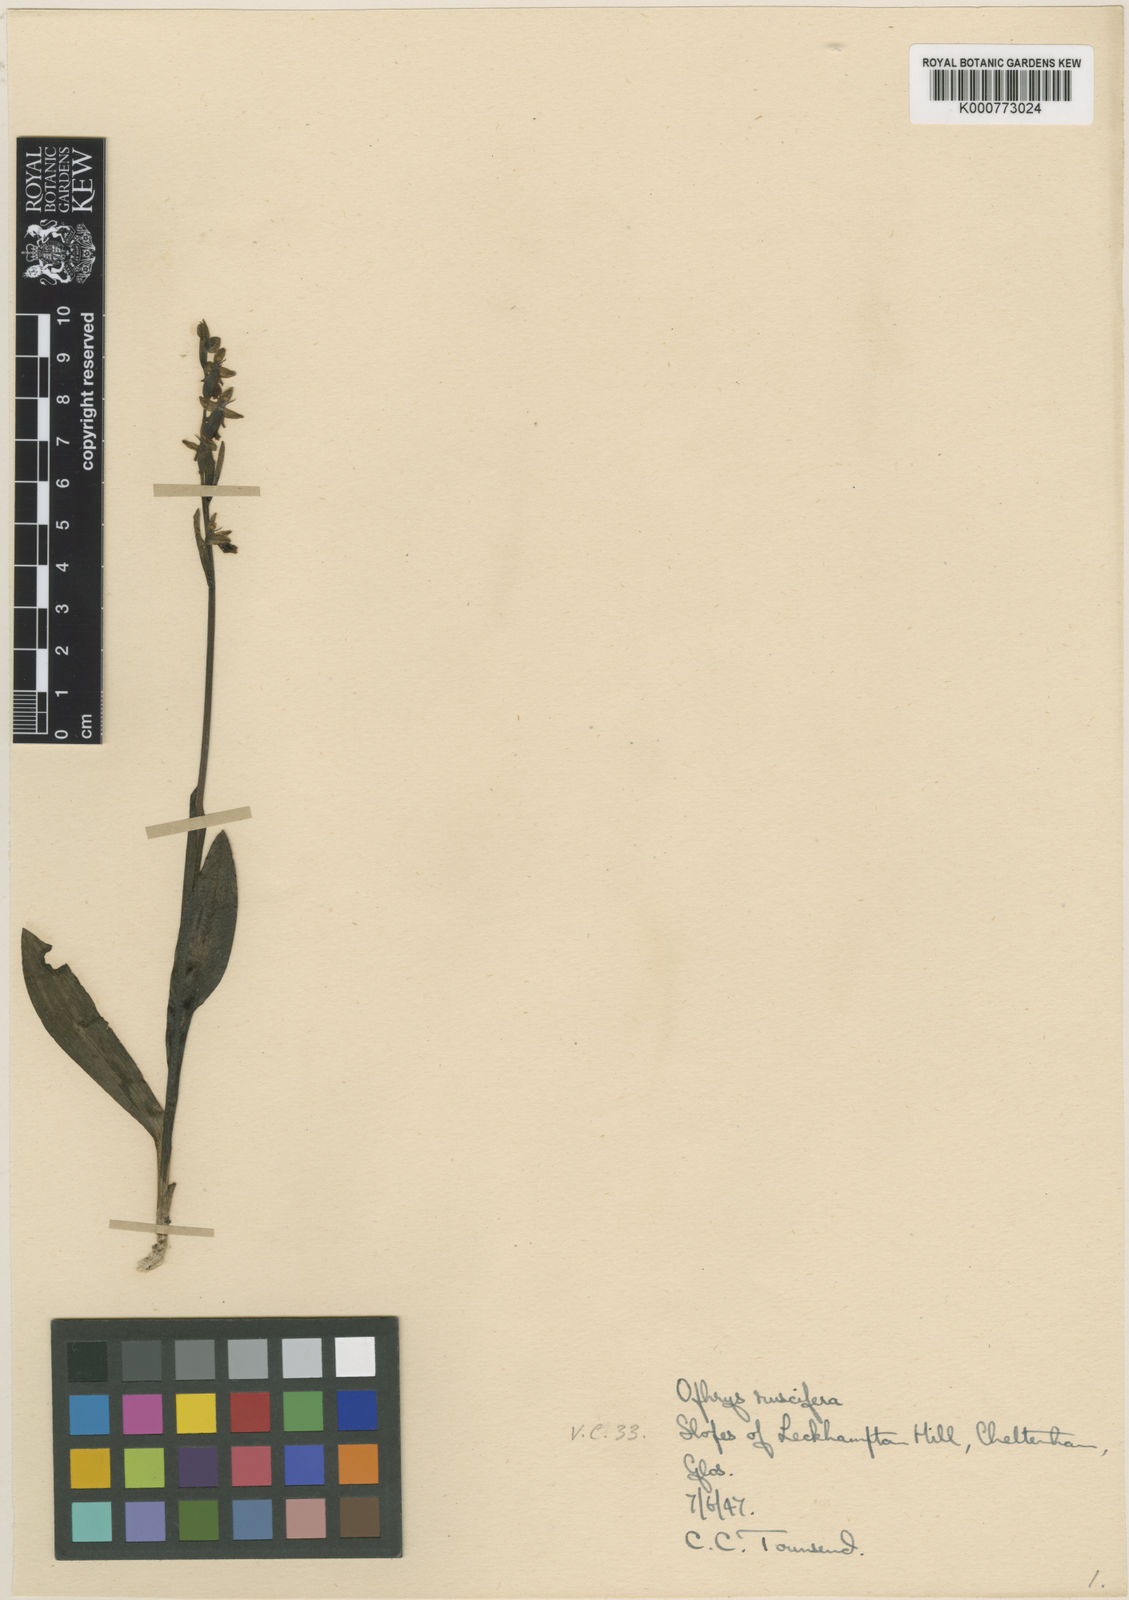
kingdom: Plantae
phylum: Tracheophyta
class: Liliopsida
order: Asparagales
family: Orchidaceae
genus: Ophrys
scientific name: Ophrys insectifera
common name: Fly orchid
